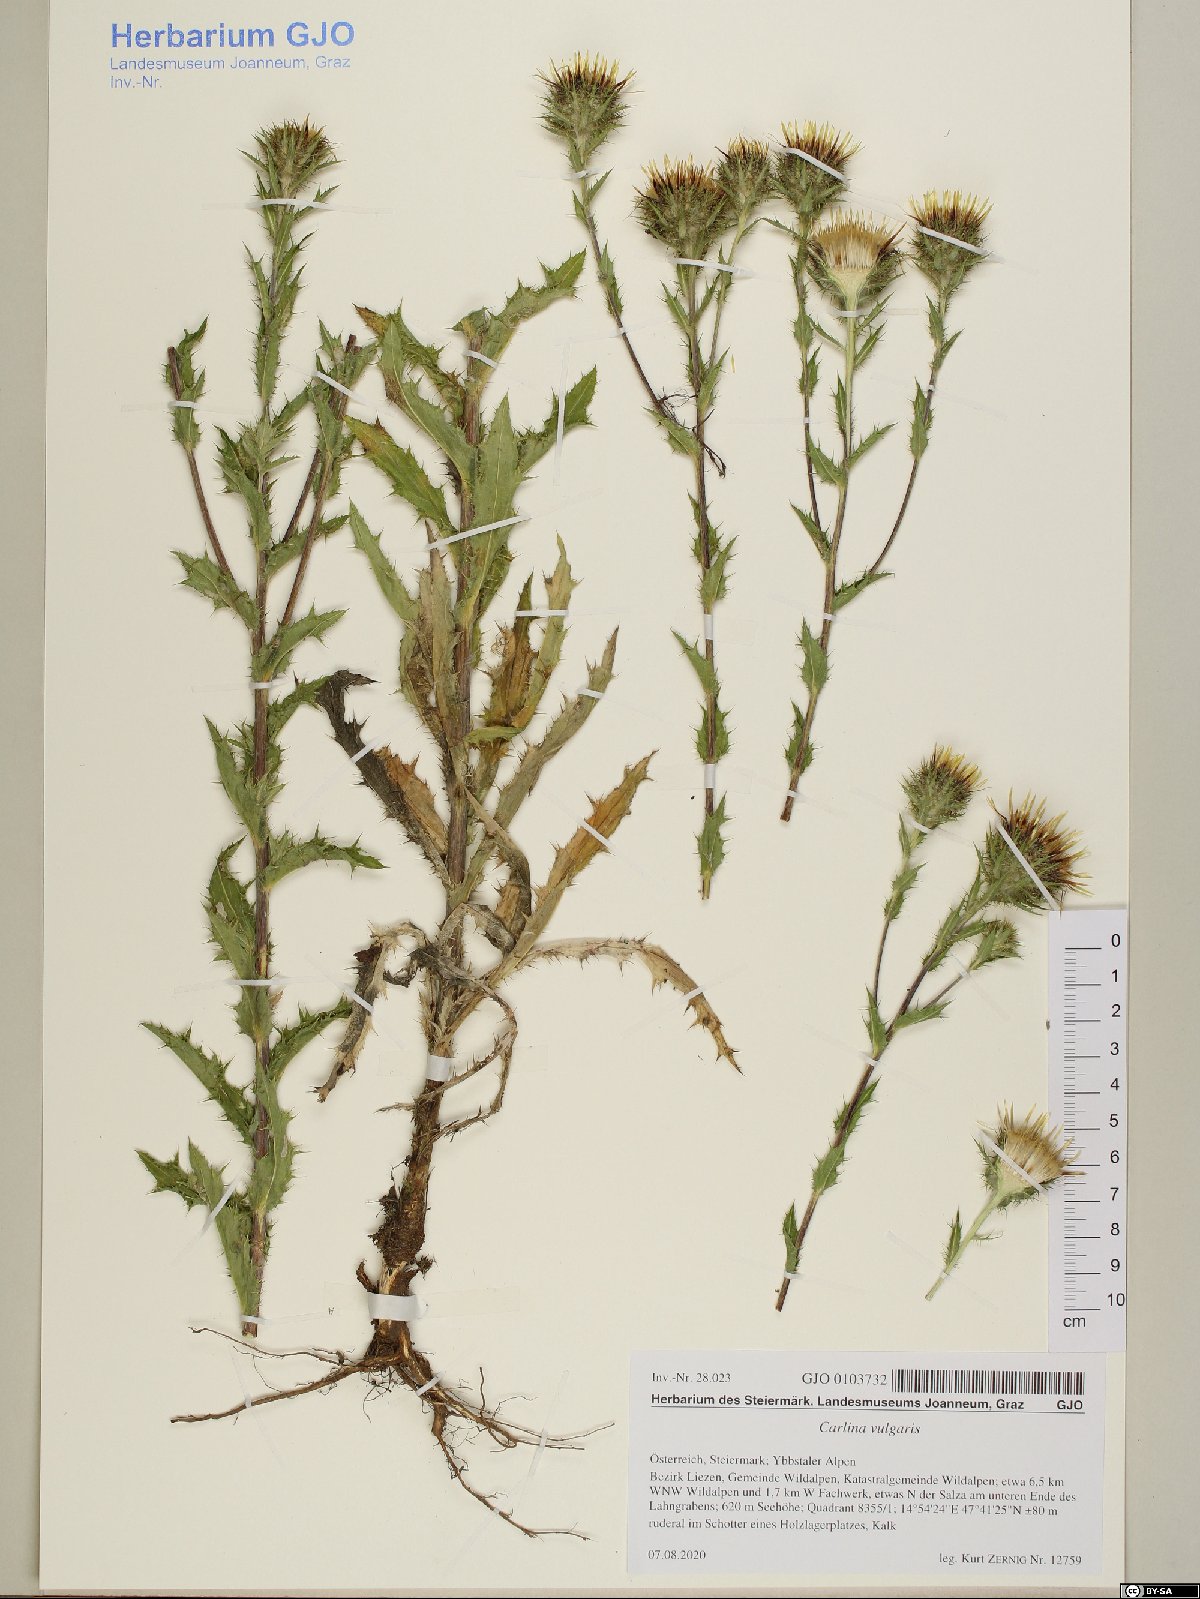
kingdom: Plantae
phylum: Tracheophyta
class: Magnoliopsida
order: Asterales
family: Asteraceae
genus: Carlina
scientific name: Carlina vulgaris
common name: Carline thistle
